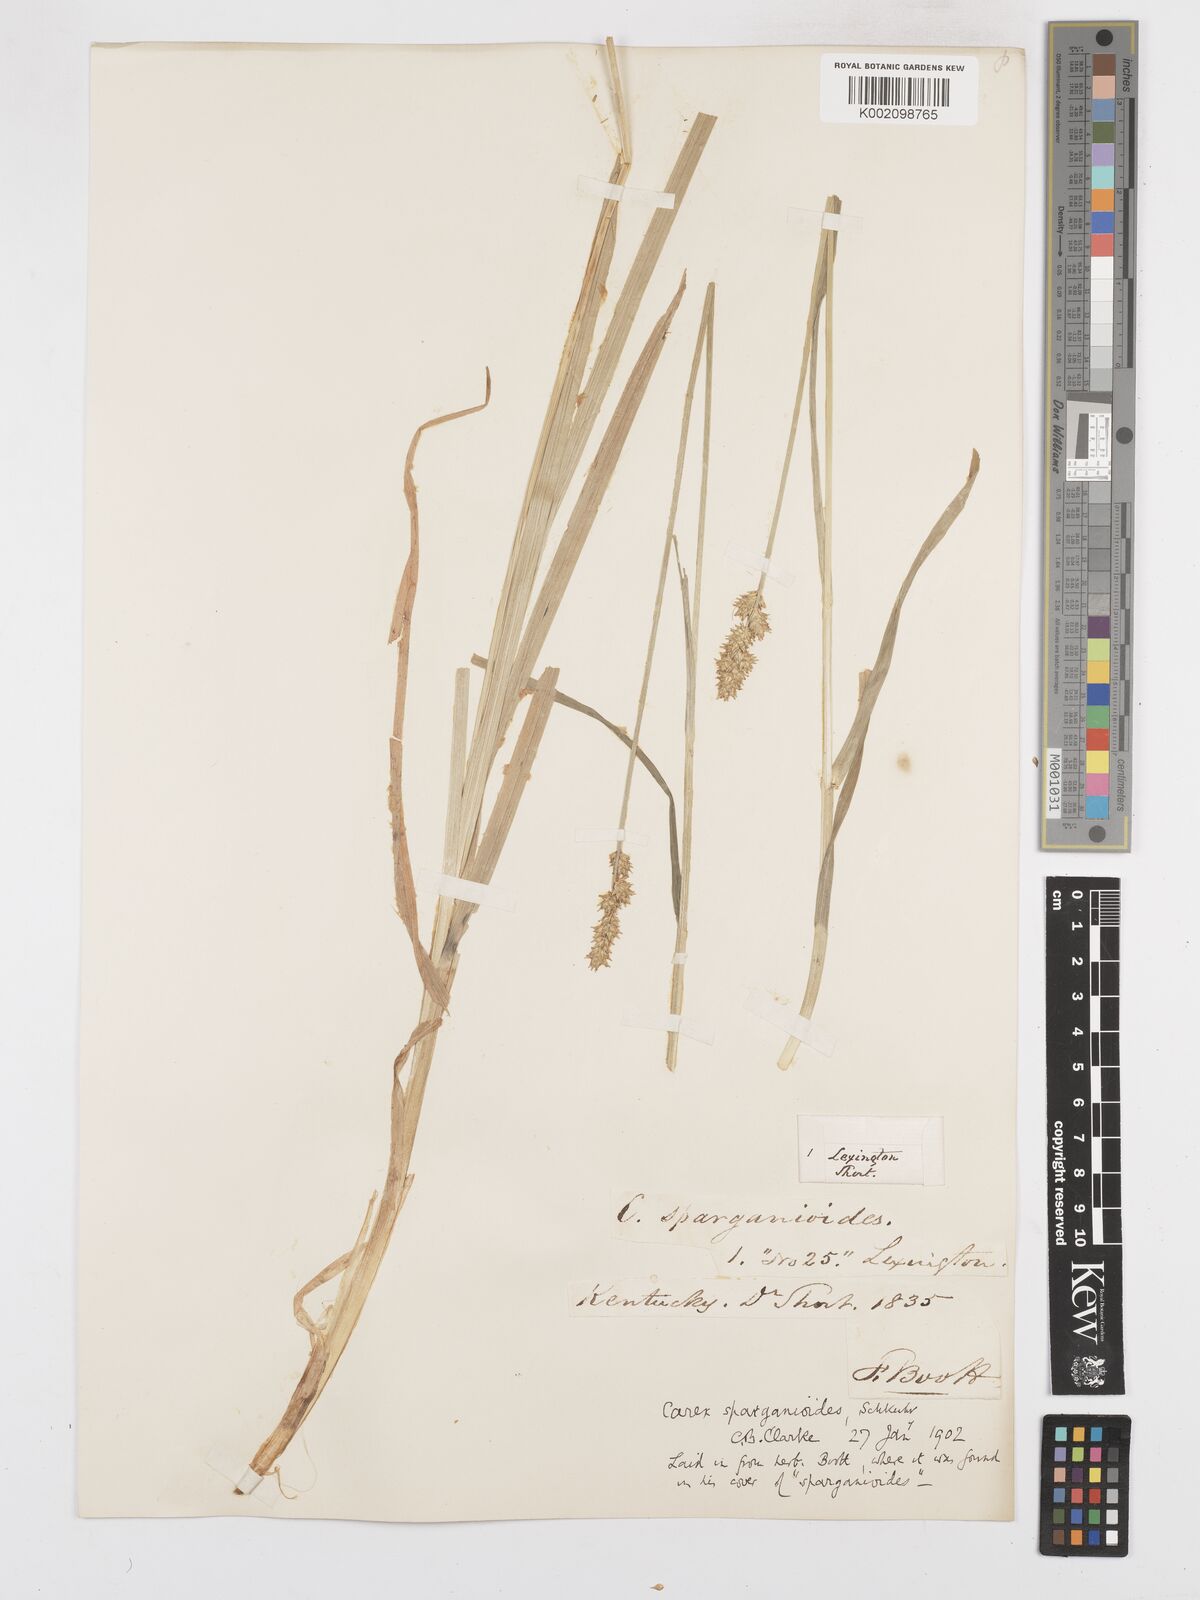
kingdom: Plantae
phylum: Tracheophyta
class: Liliopsida
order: Poales
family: Cyperaceae
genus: Carex
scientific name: Carex sparganioides
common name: Burreed sedge
